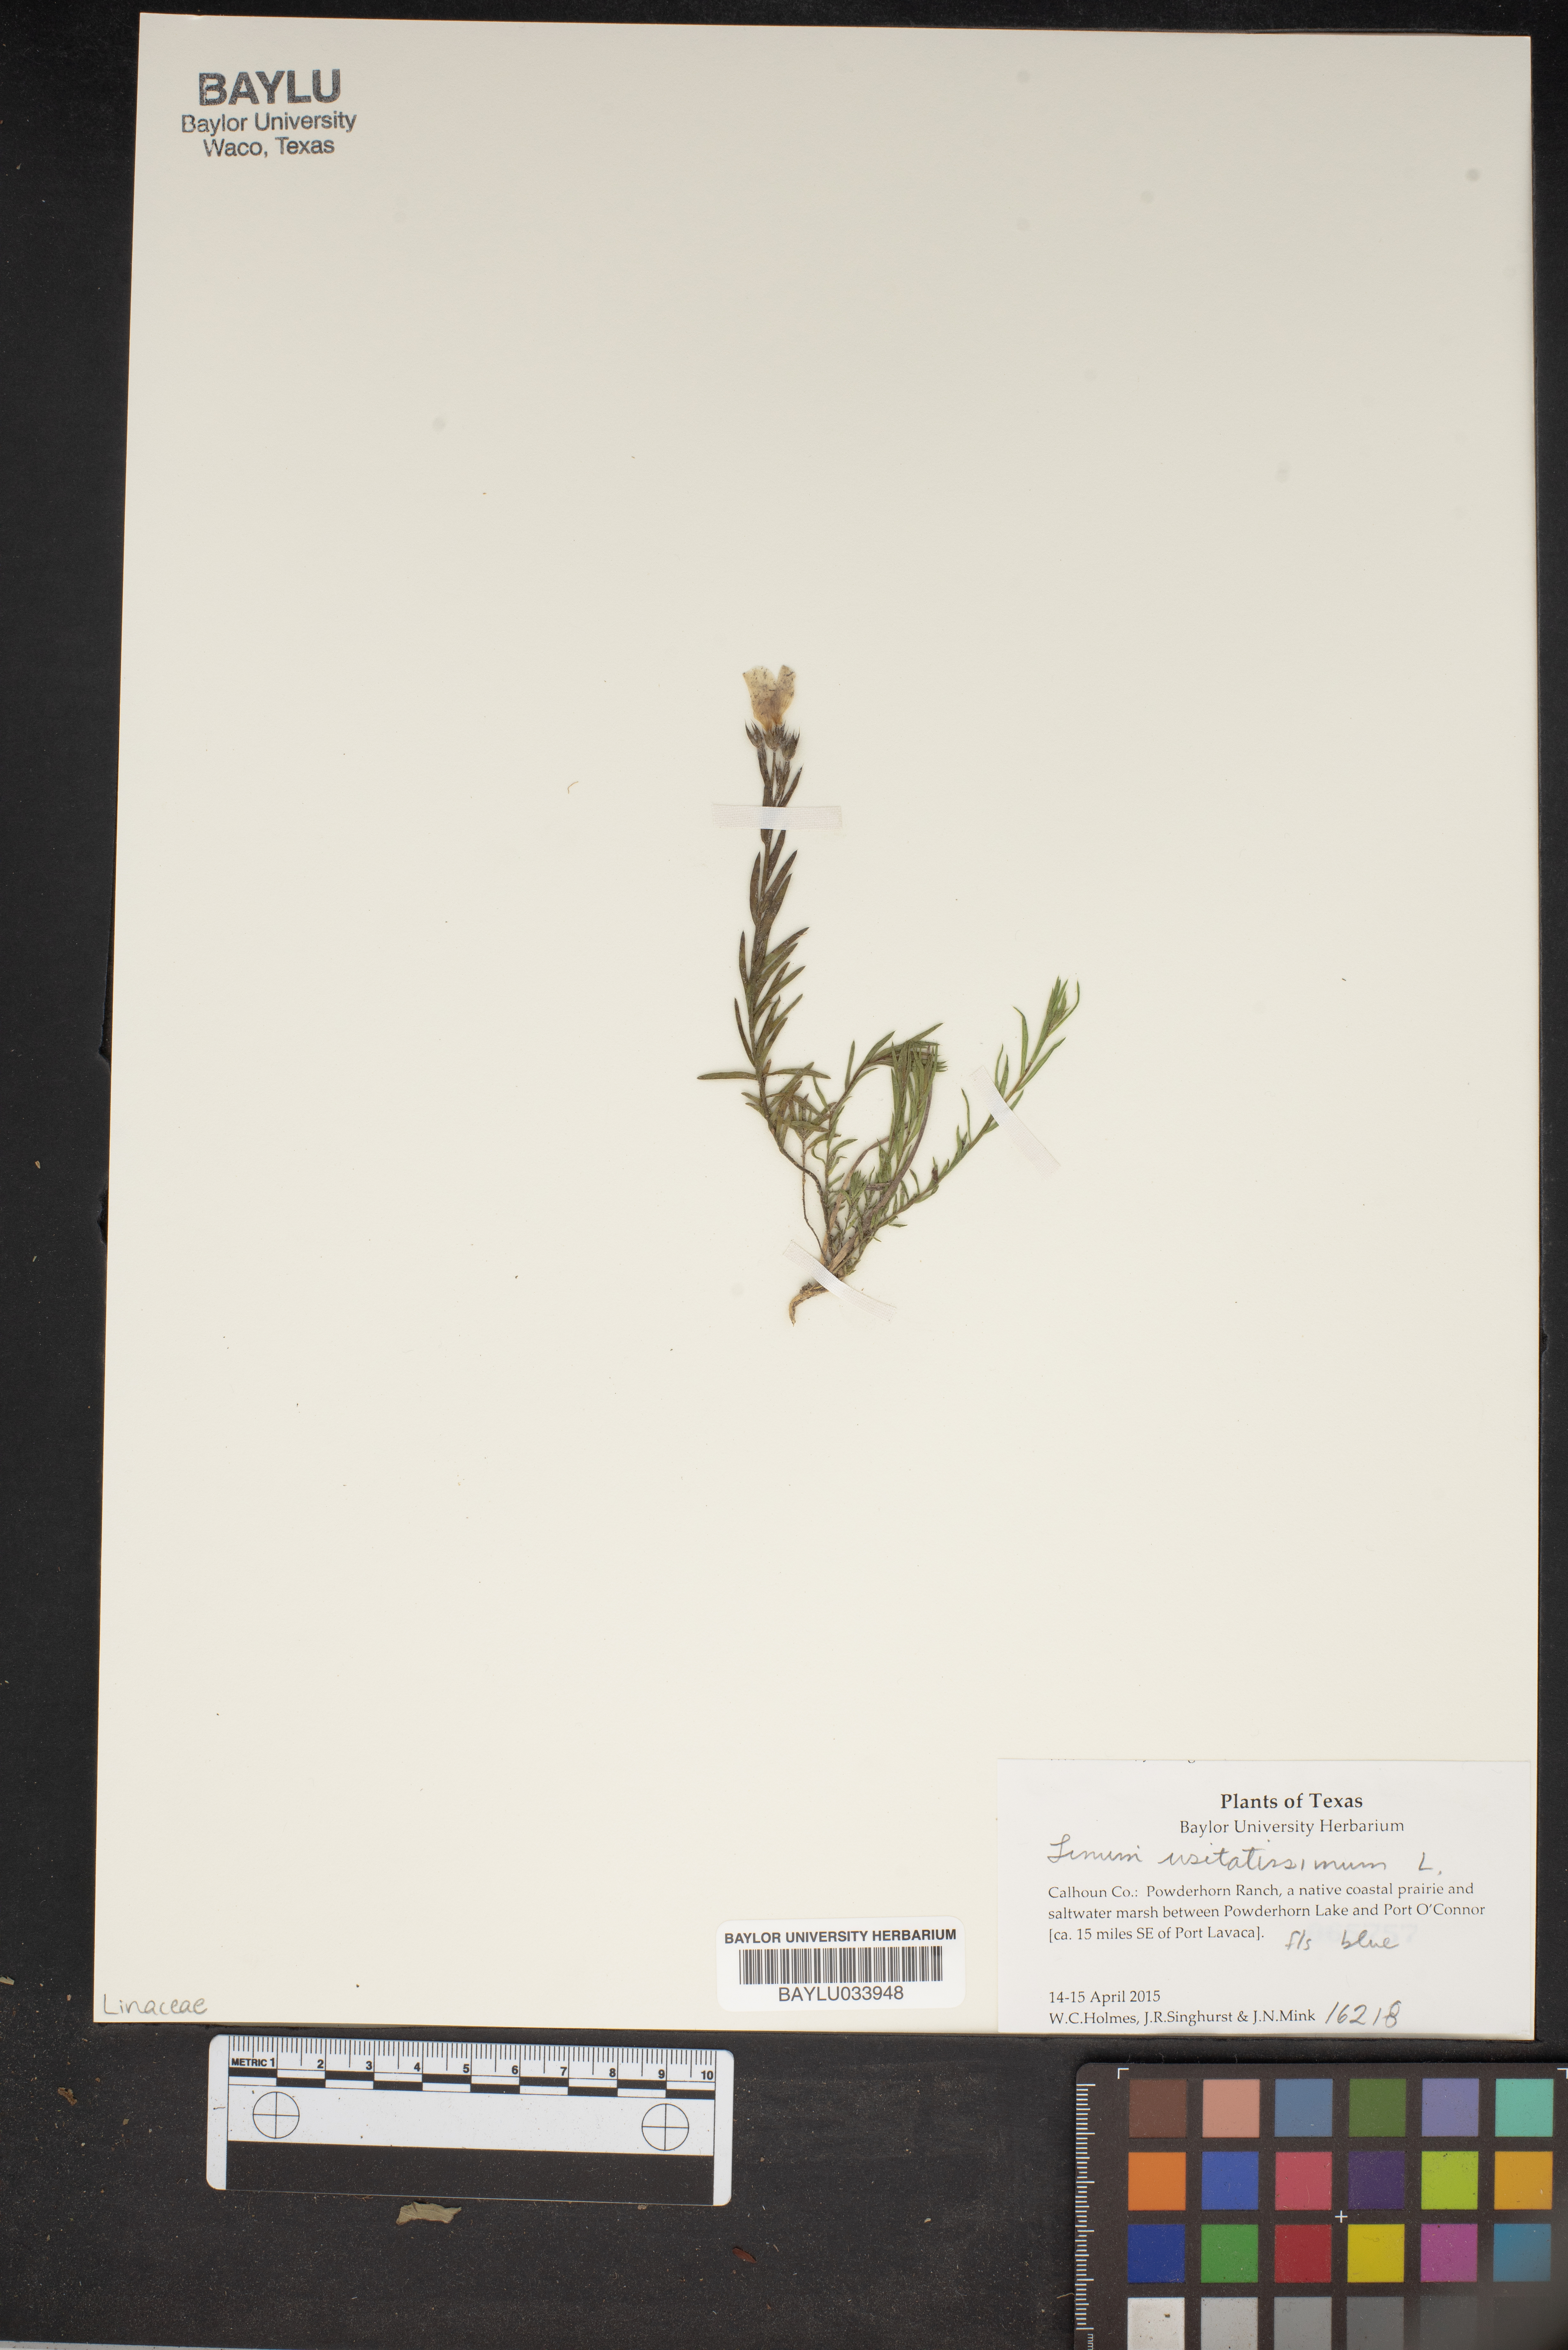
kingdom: Plantae
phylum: Tracheophyta
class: Magnoliopsida
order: Malpighiales
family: Linaceae
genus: Linum
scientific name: Linum usitatissimum
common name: Flax
